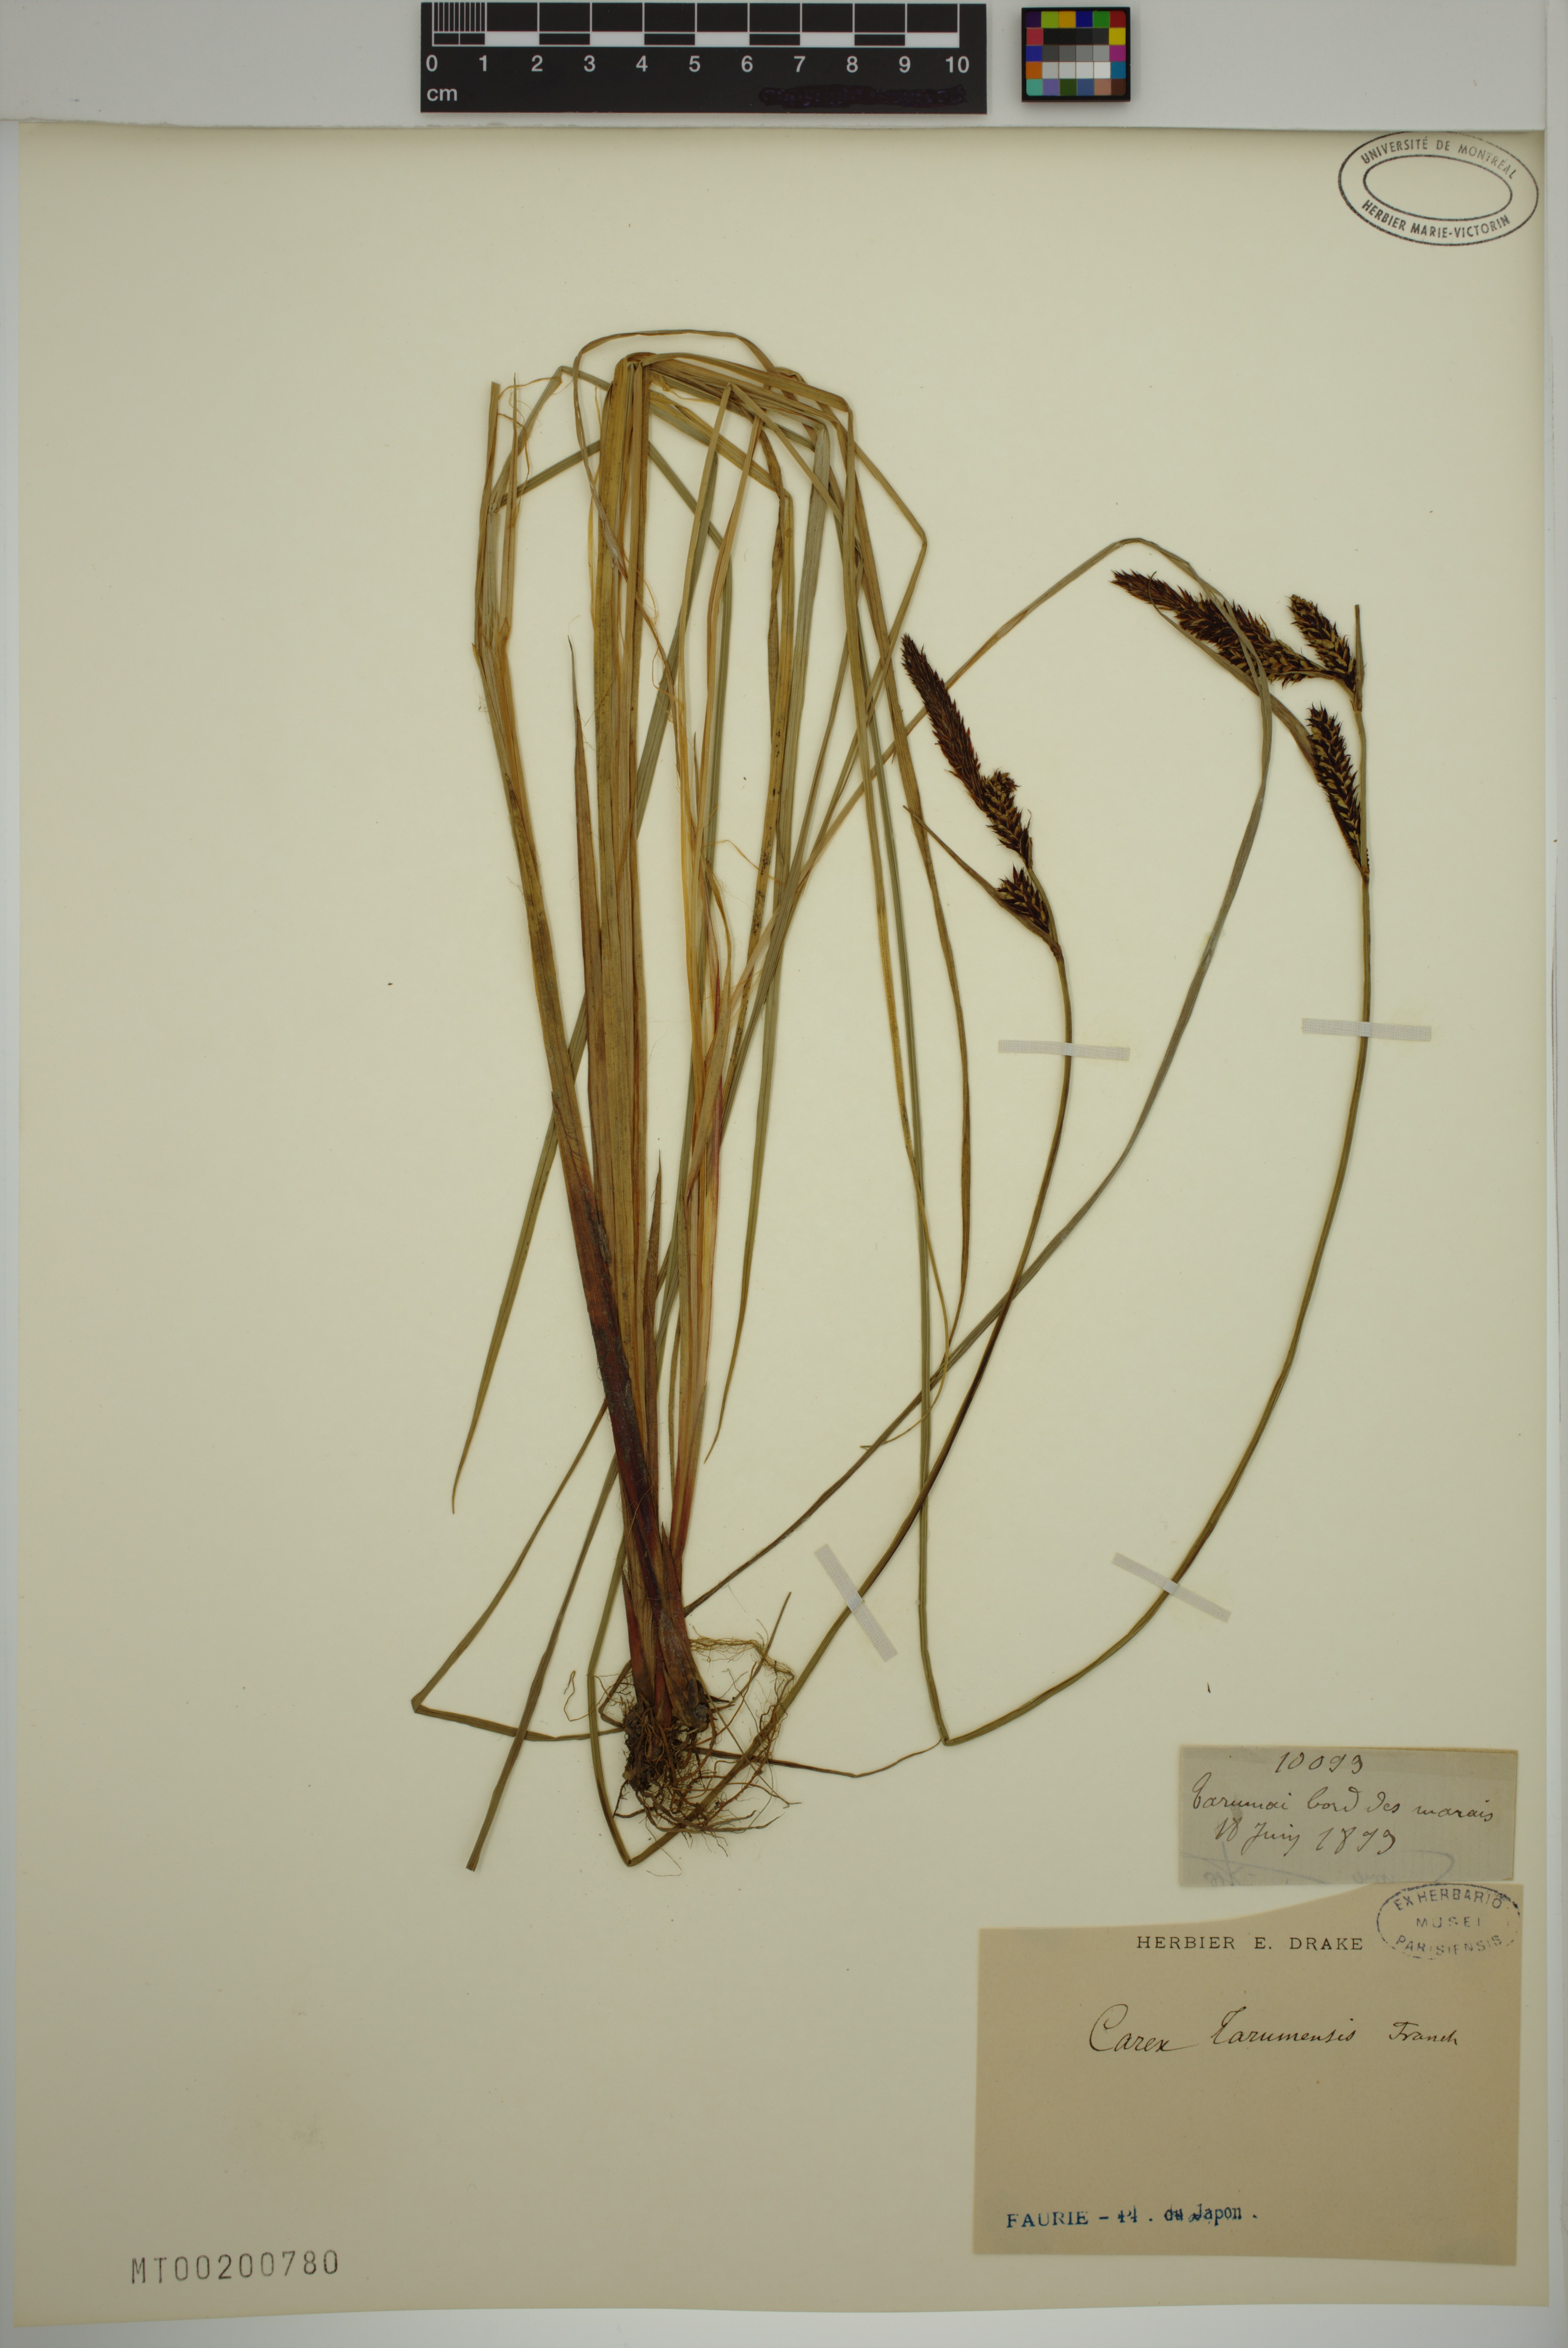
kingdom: Plantae
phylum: Tracheophyta
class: Liliopsida
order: Poales
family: Cyperaceae
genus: Carex
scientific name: Carex tarumensis
